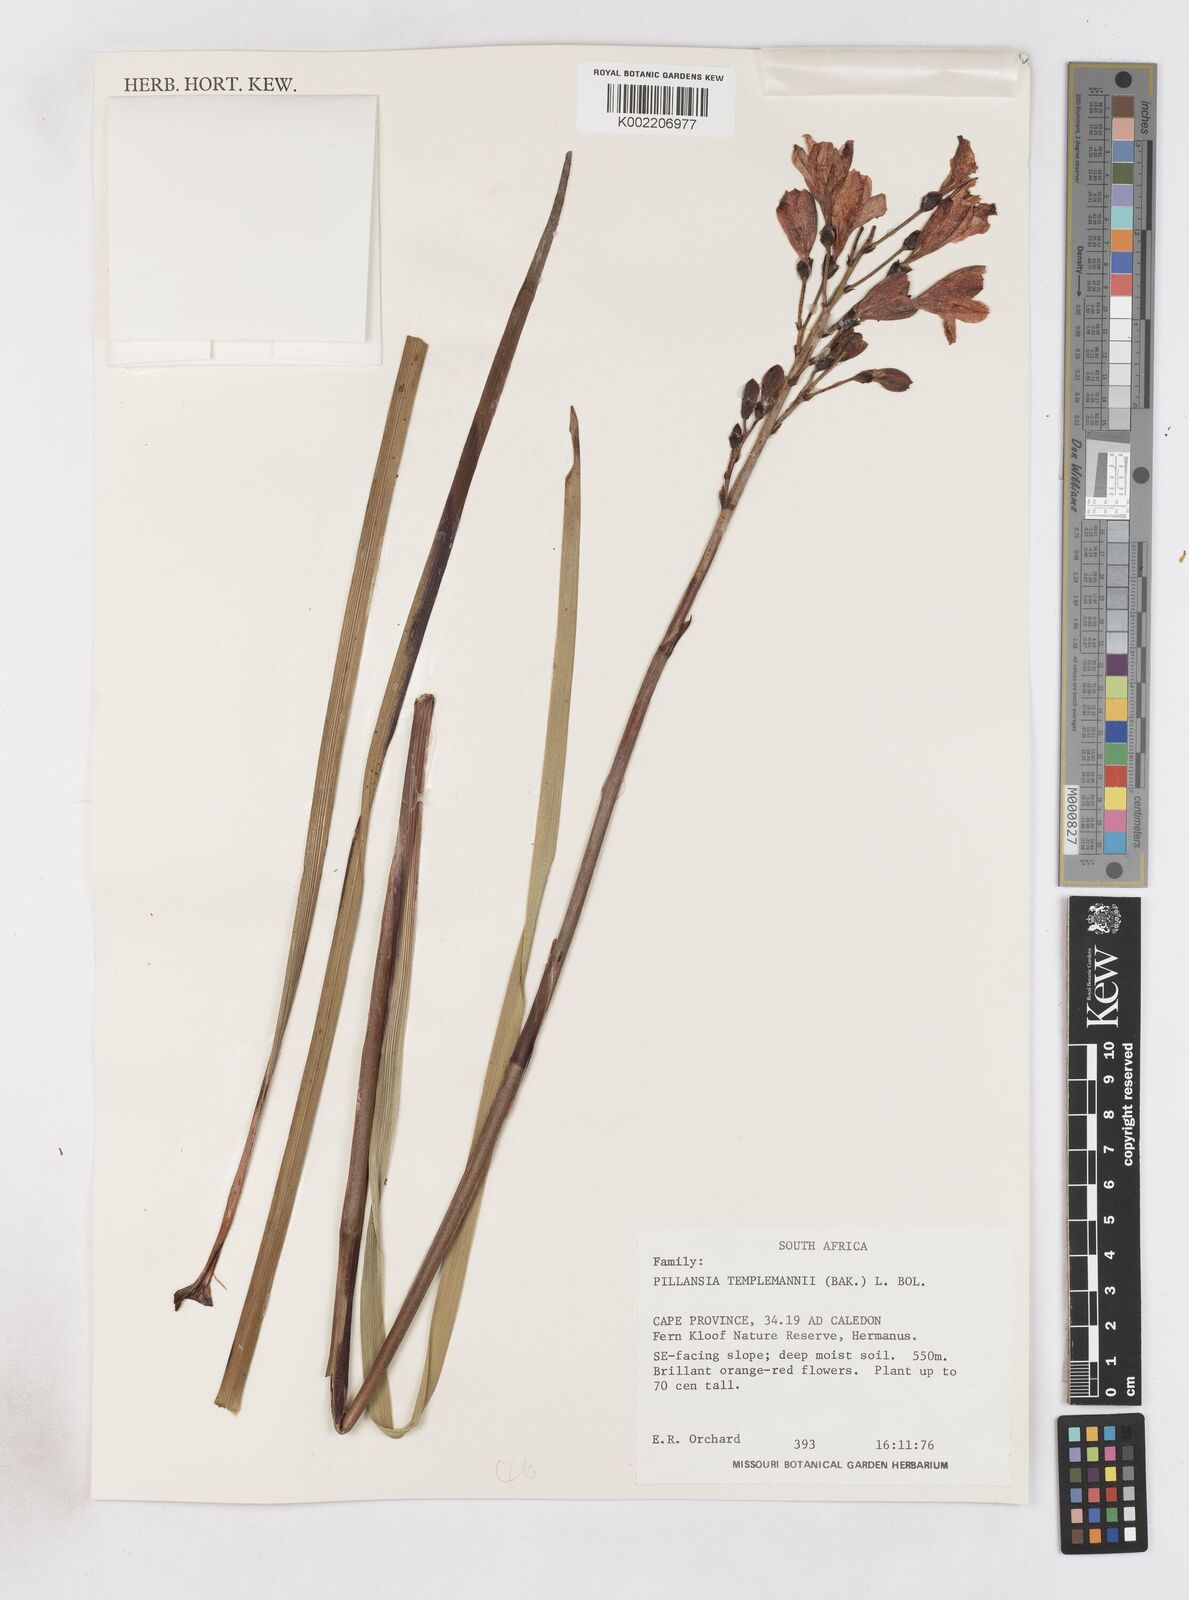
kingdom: Plantae
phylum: Tracheophyta
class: Liliopsida
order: Asparagales
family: Iridaceae
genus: Pillansia
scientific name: Pillansia templemannii
